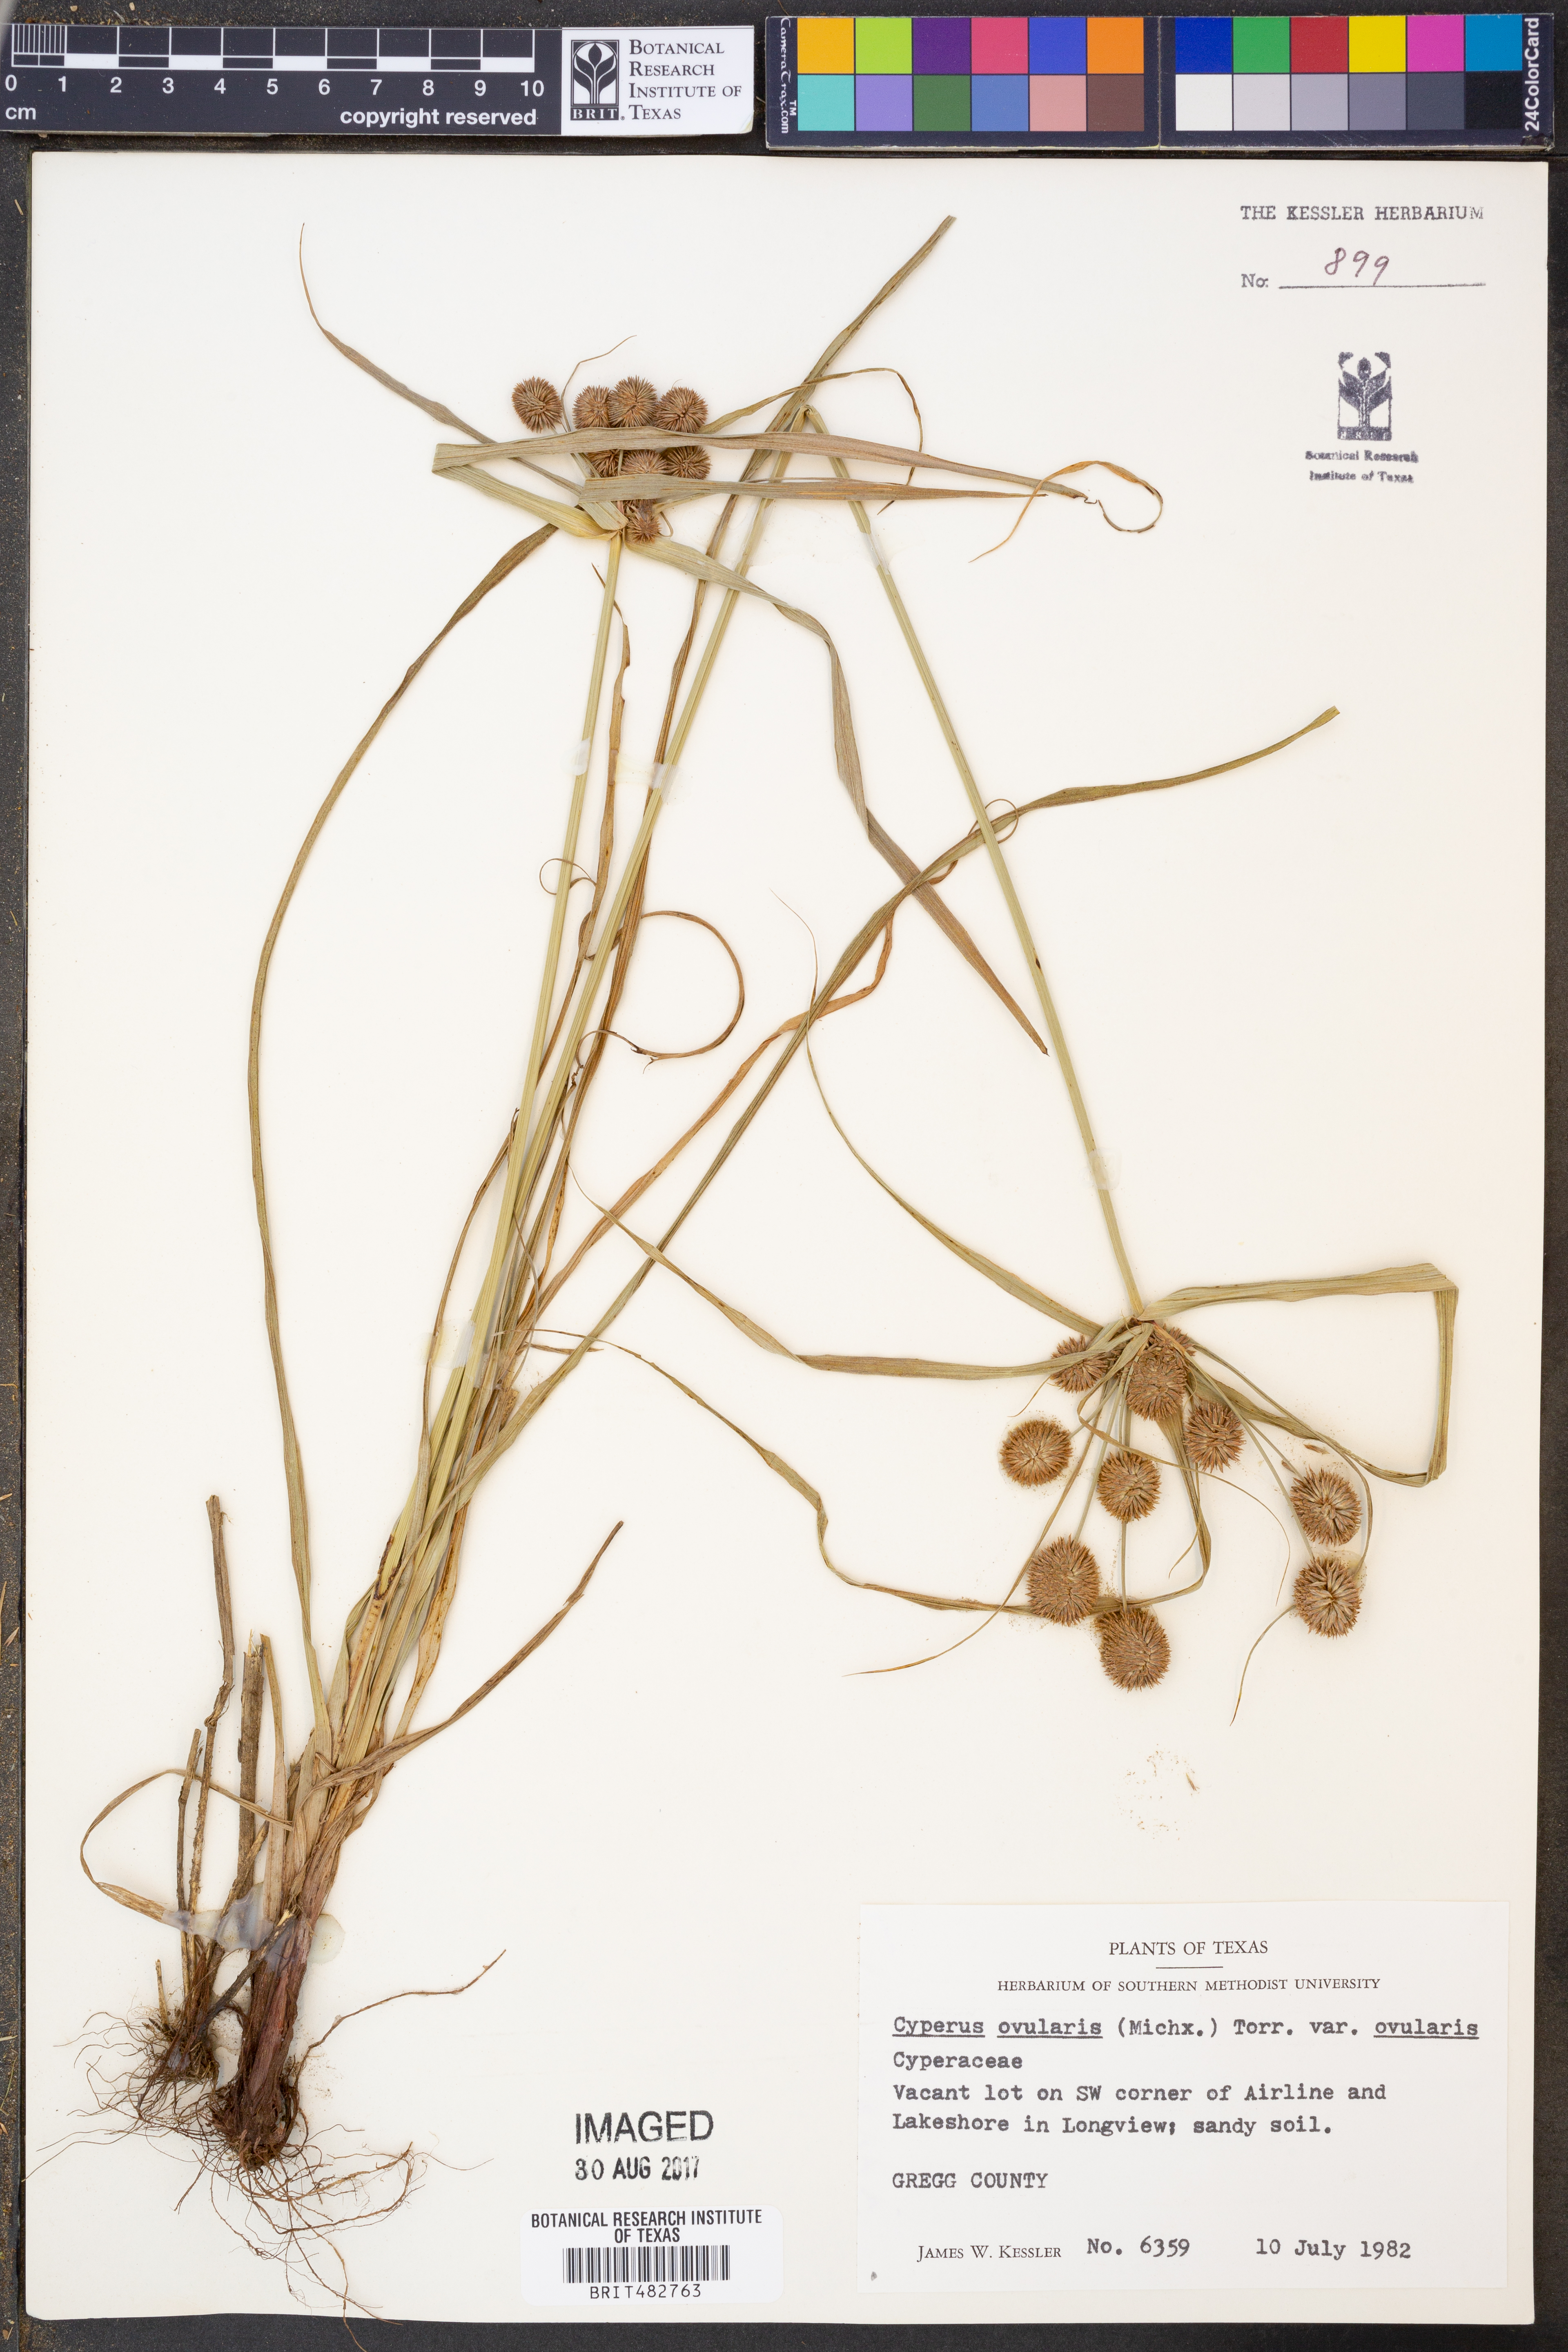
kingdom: Plantae
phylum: Tracheophyta
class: Liliopsida
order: Poales
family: Cyperaceae
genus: Cyperus
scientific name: Cyperus
